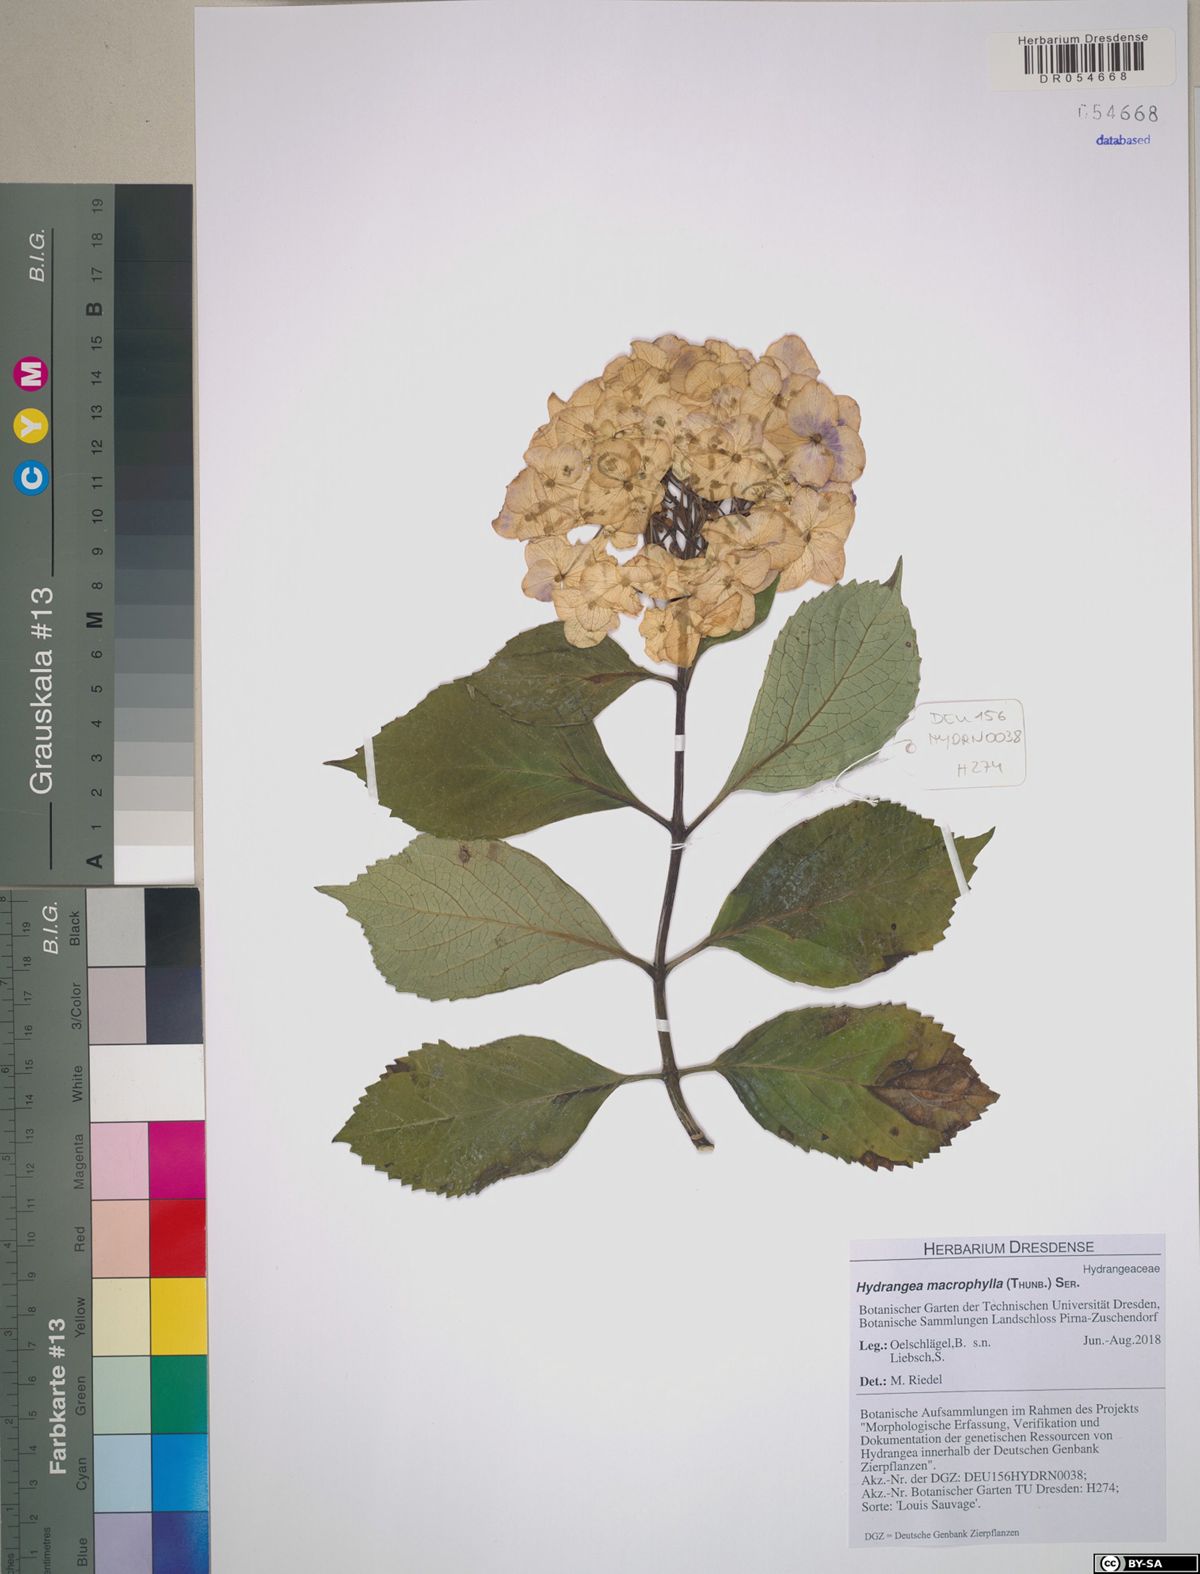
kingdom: Plantae
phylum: Tracheophyta
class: Magnoliopsida
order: Cornales
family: Hydrangeaceae
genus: Hydrangea
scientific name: Hydrangea macrophylla
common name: Hydrangea
